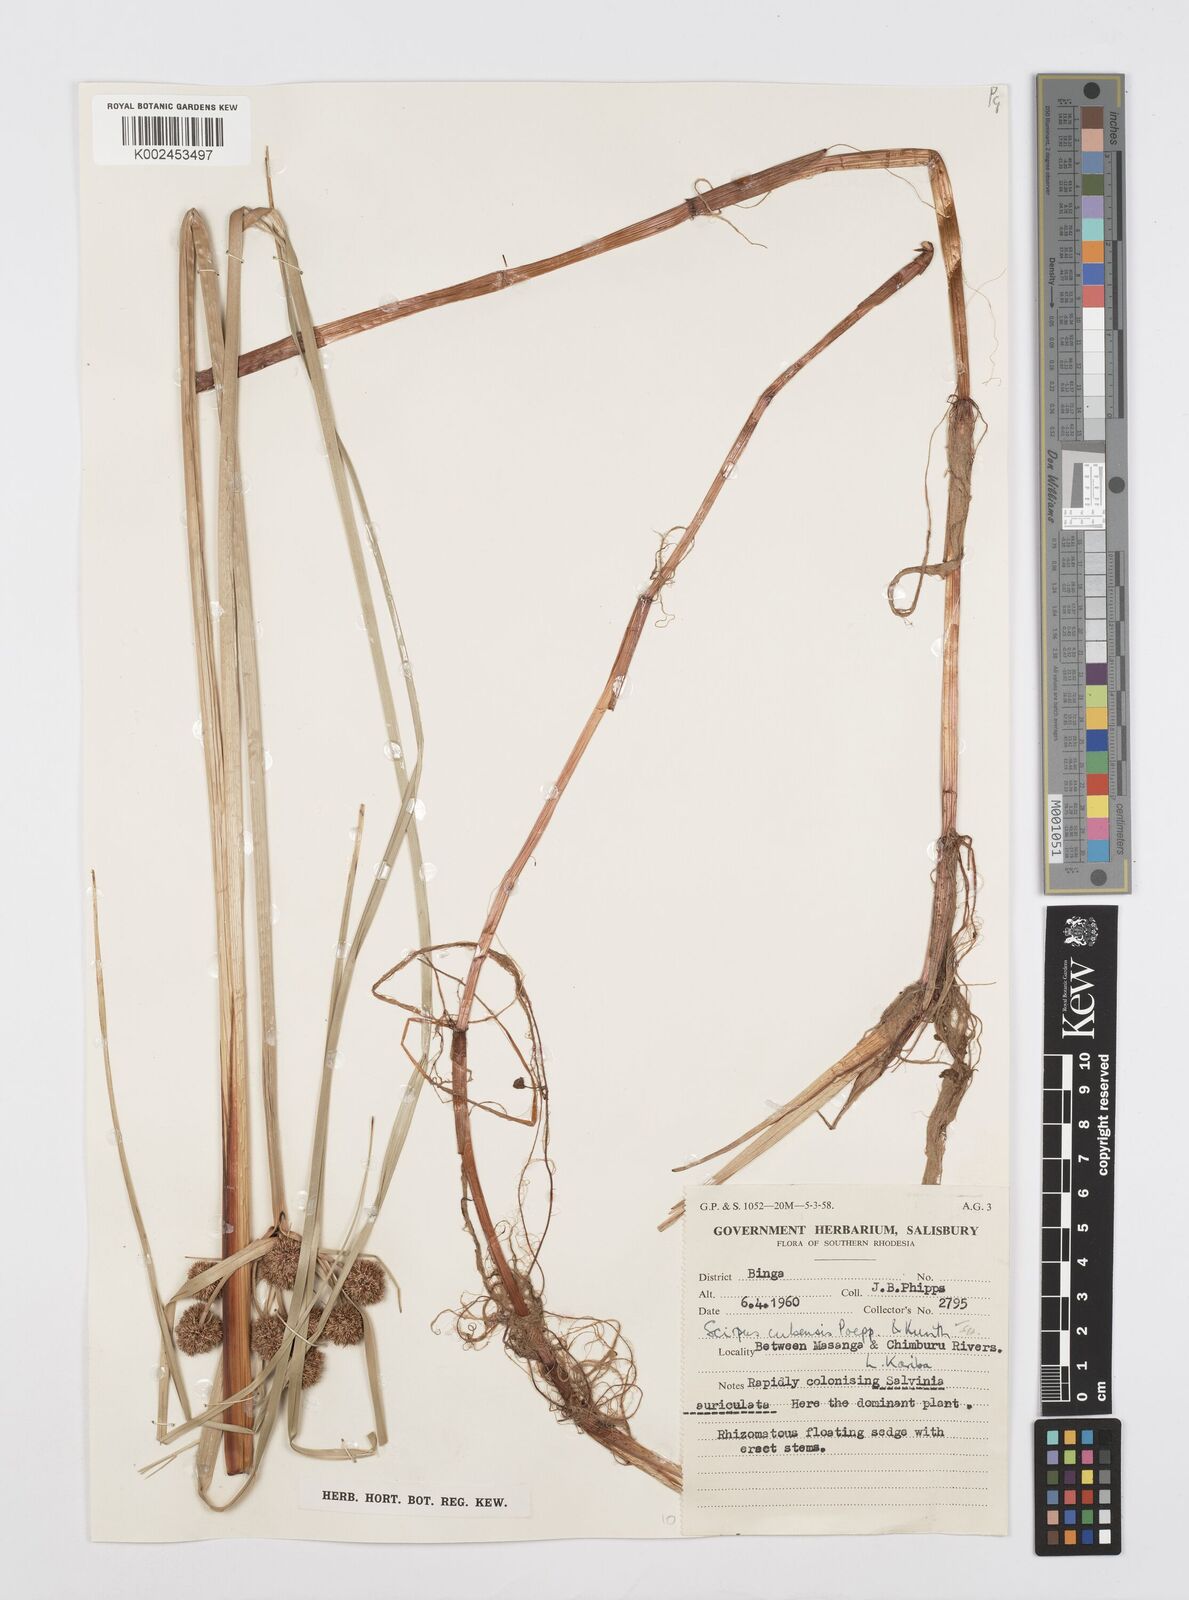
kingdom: Plantae
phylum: Tracheophyta
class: Liliopsida
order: Poales
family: Cyperaceae
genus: Cyperus
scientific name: Cyperus elegans
